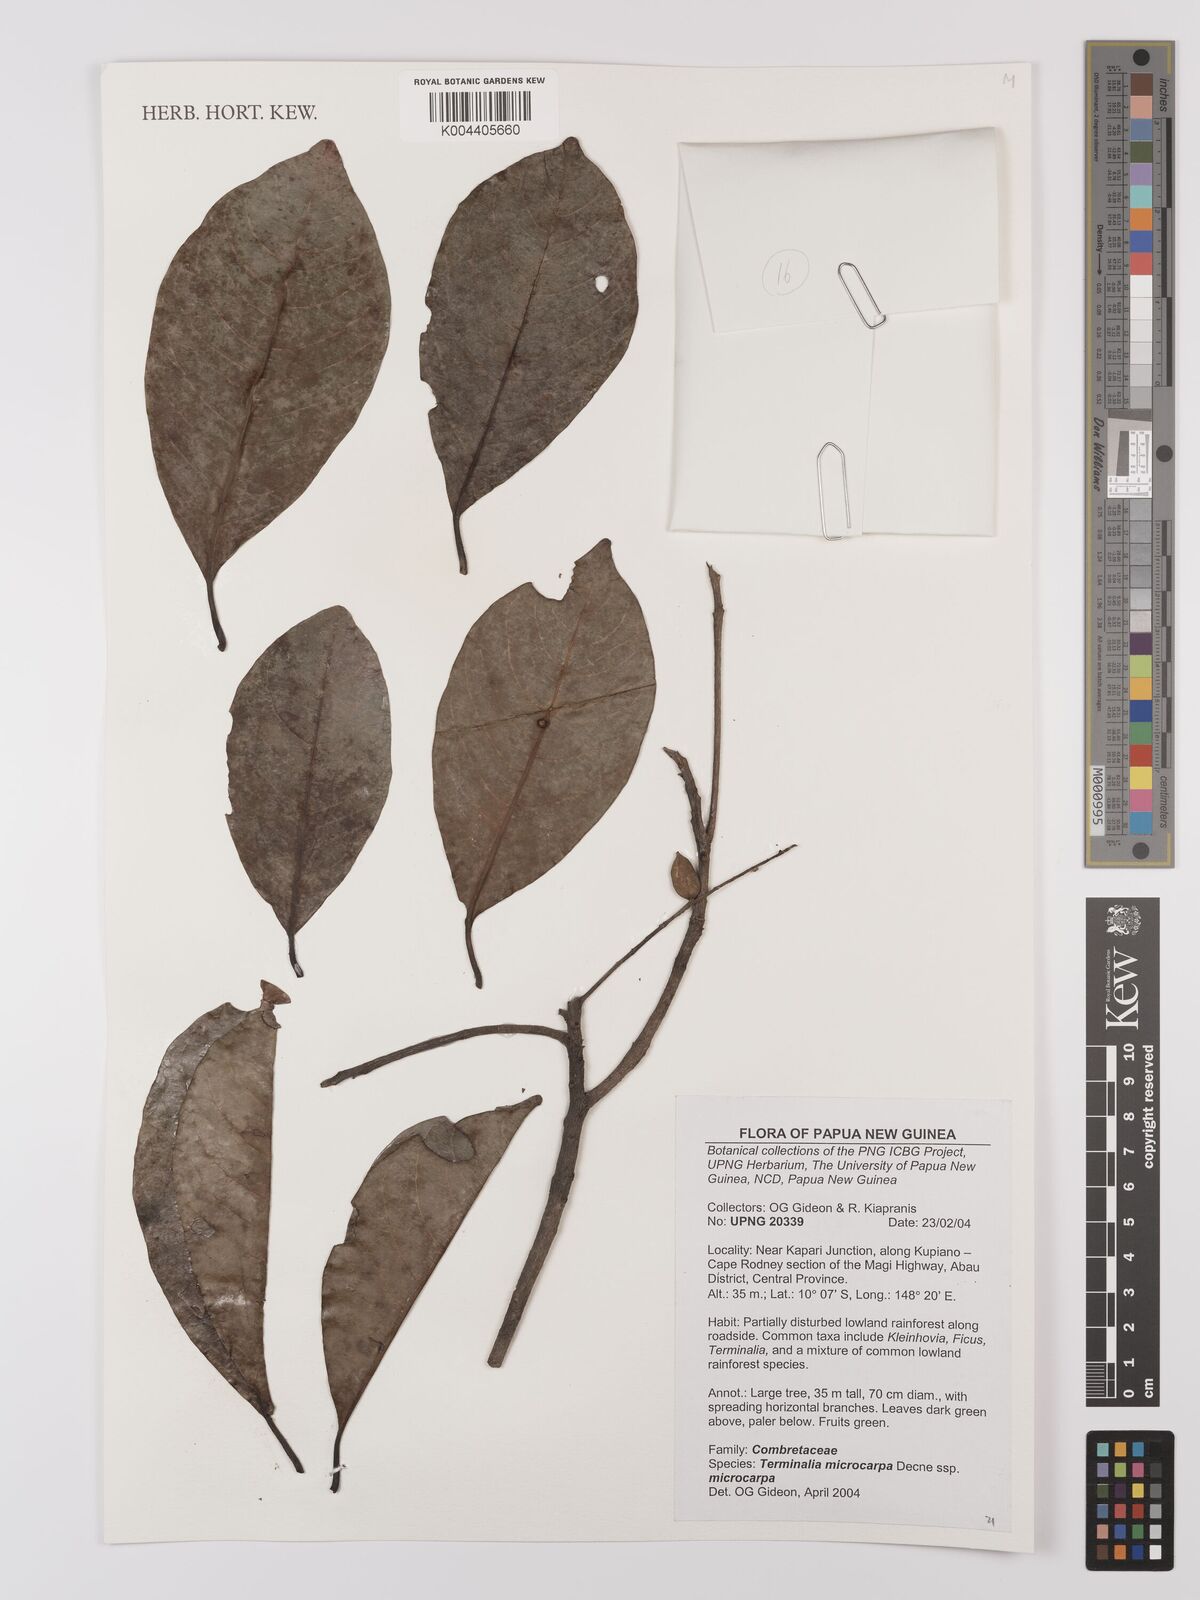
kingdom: Plantae
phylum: Tracheophyta
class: Magnoliopsida
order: Myrtales
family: Combretaceae
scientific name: Combretaceae
